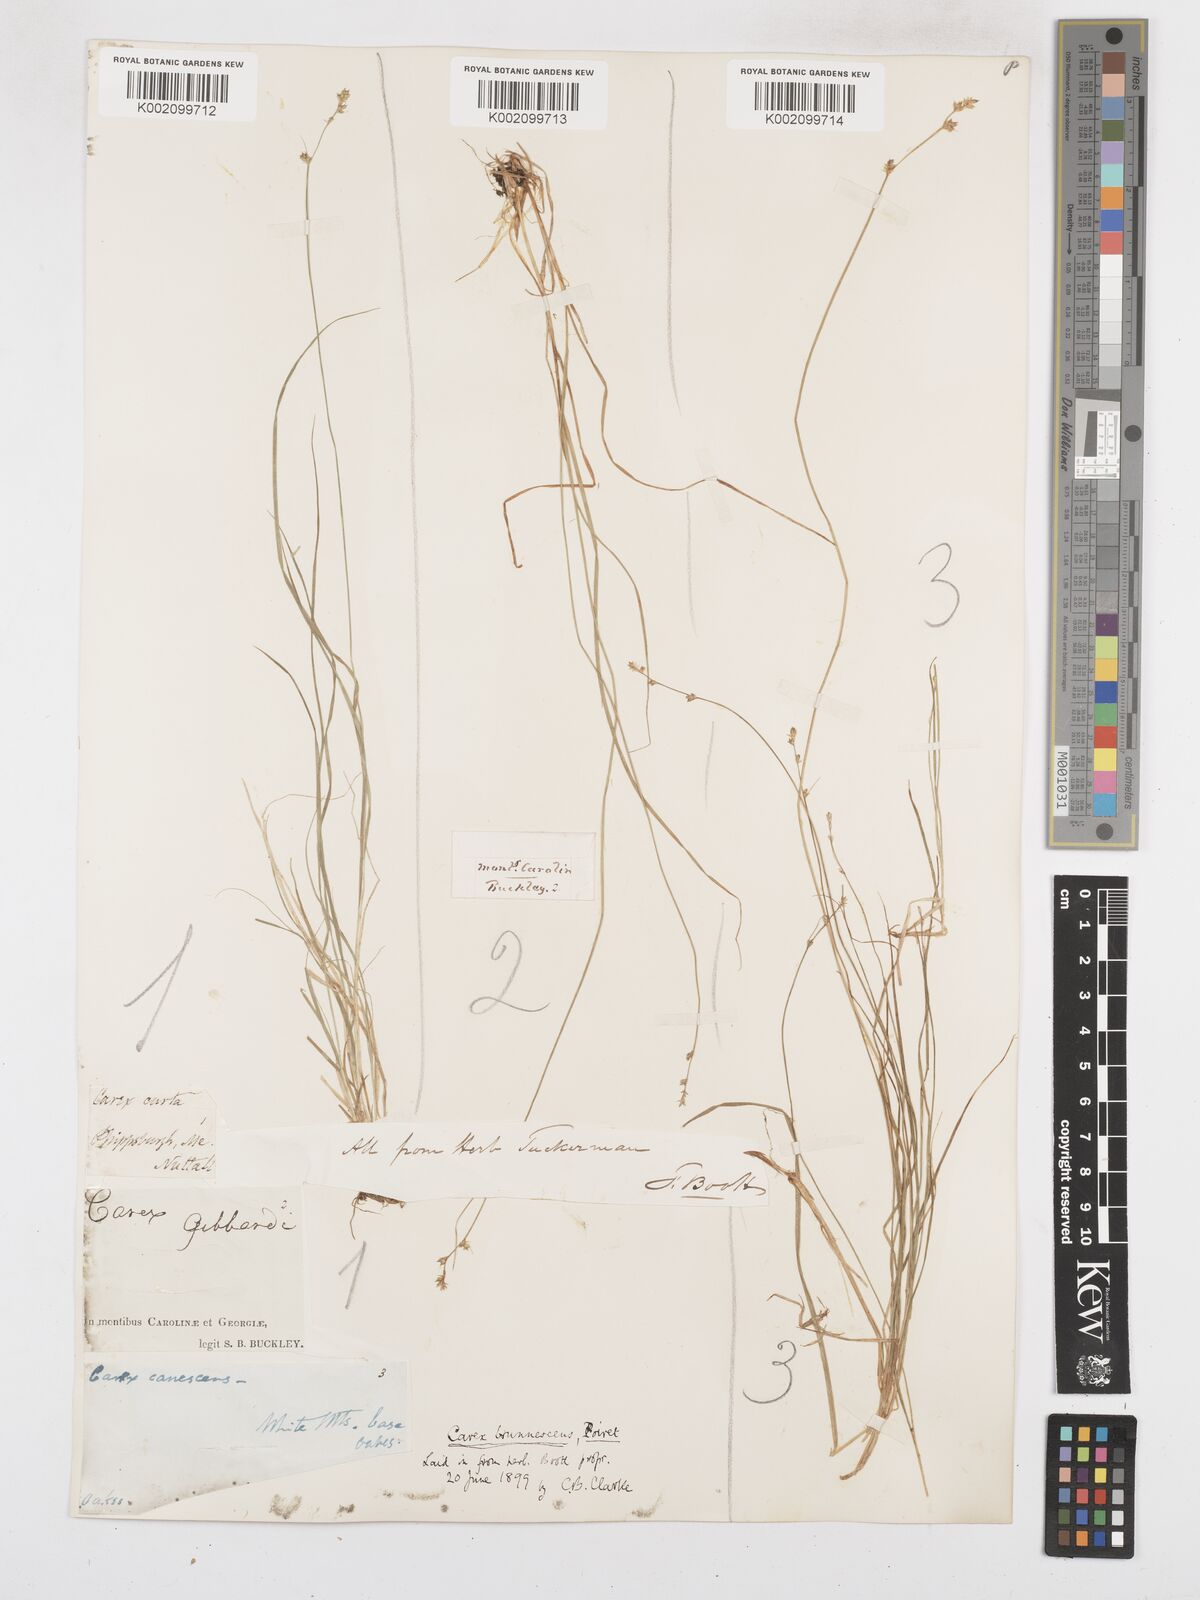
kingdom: Plantae
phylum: Tracheophyta
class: Liliopsida
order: Poales
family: Cyperaceae
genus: Carex
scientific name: Carex brunnescens
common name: Brown sedge
